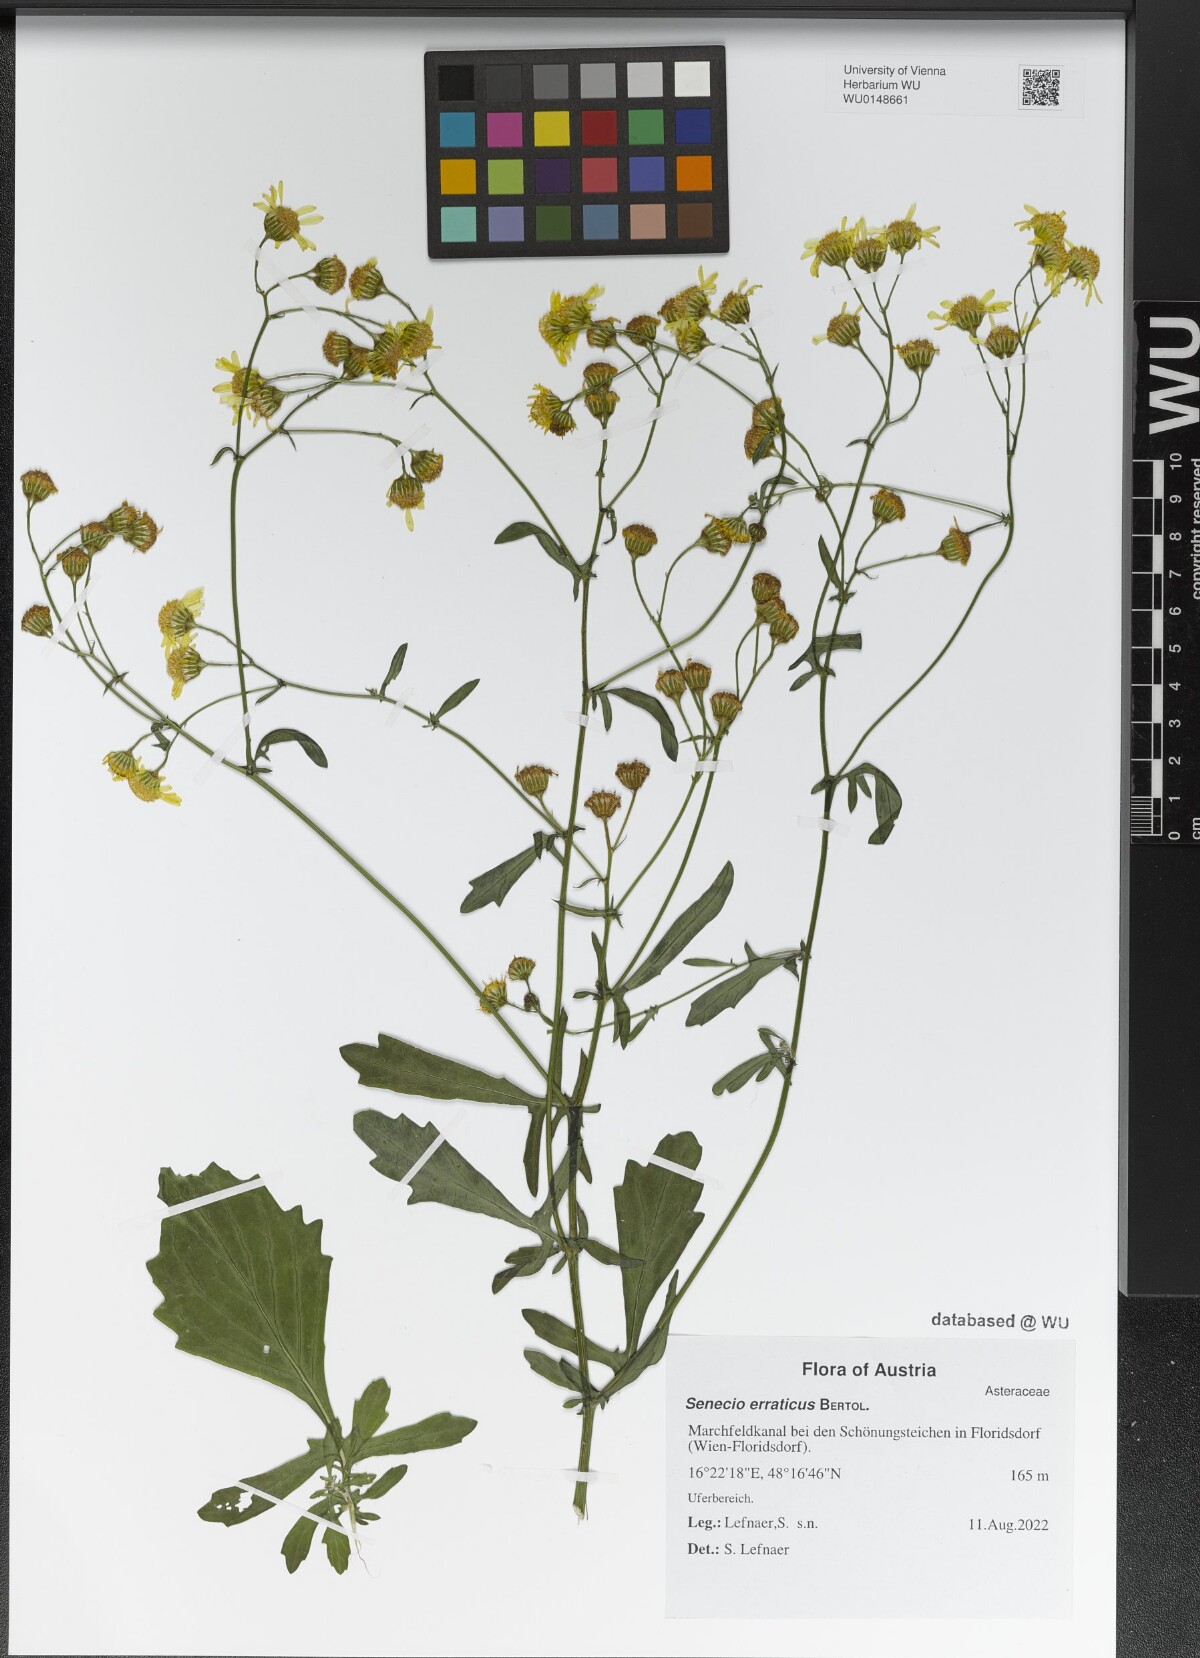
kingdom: Plantae
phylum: Tracheophyta
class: Magnoliopsida
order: Asterales
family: Asteraceae
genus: Jacobaea
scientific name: Jacobaea erratica
